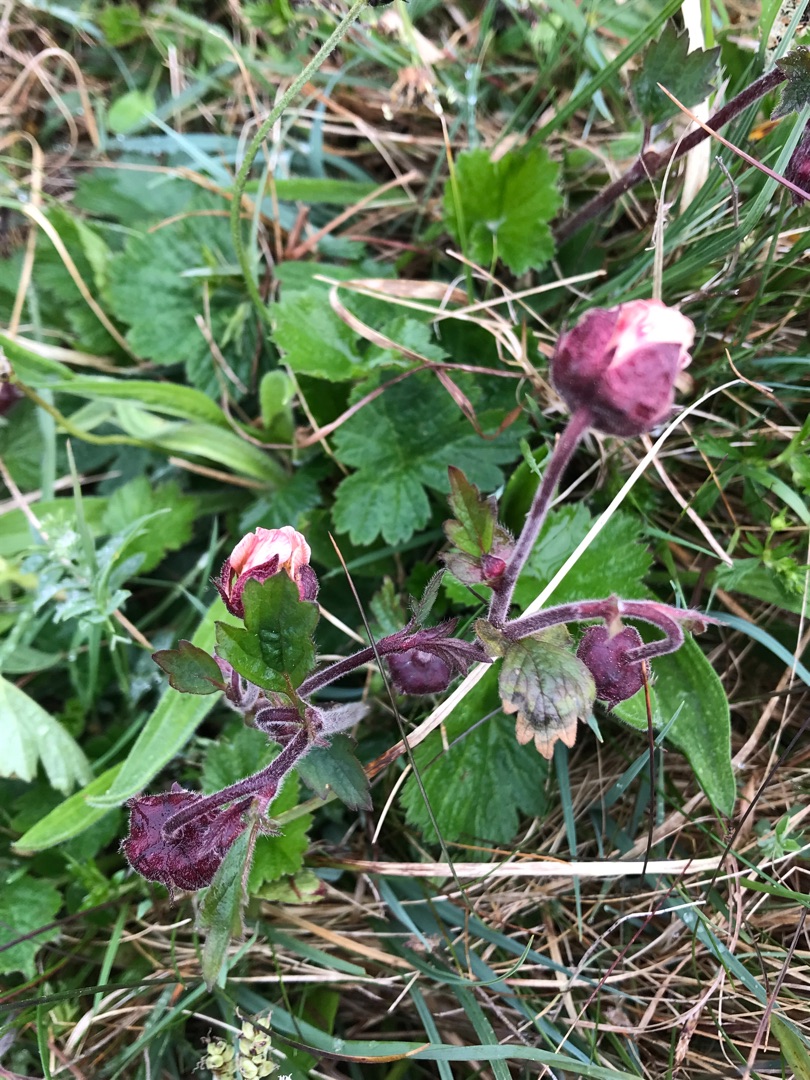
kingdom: Plantae
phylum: Tracheophyta
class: Magnoliopsida
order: Rosales
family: Rosaceae
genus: Geum
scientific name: Geum rivale
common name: Eng-nellikerod
